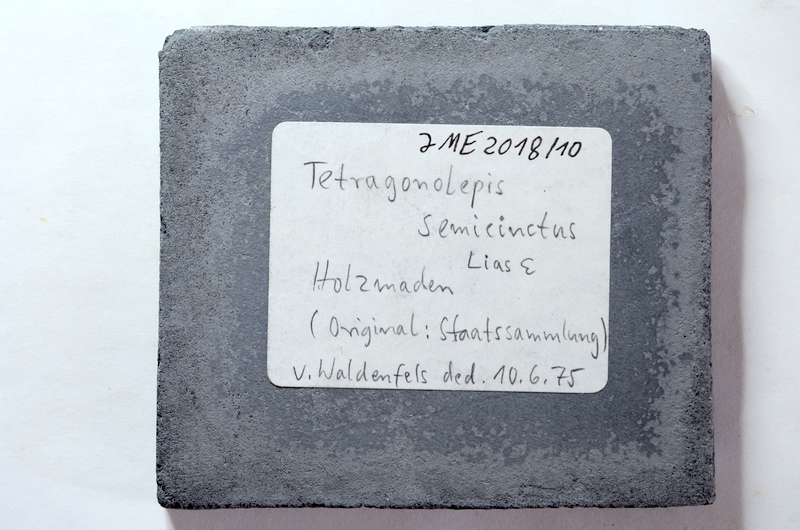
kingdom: Animalia
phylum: Chordata
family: Dapediidae
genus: Tetragonolepis
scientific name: Tetragonolepis semicinctus
